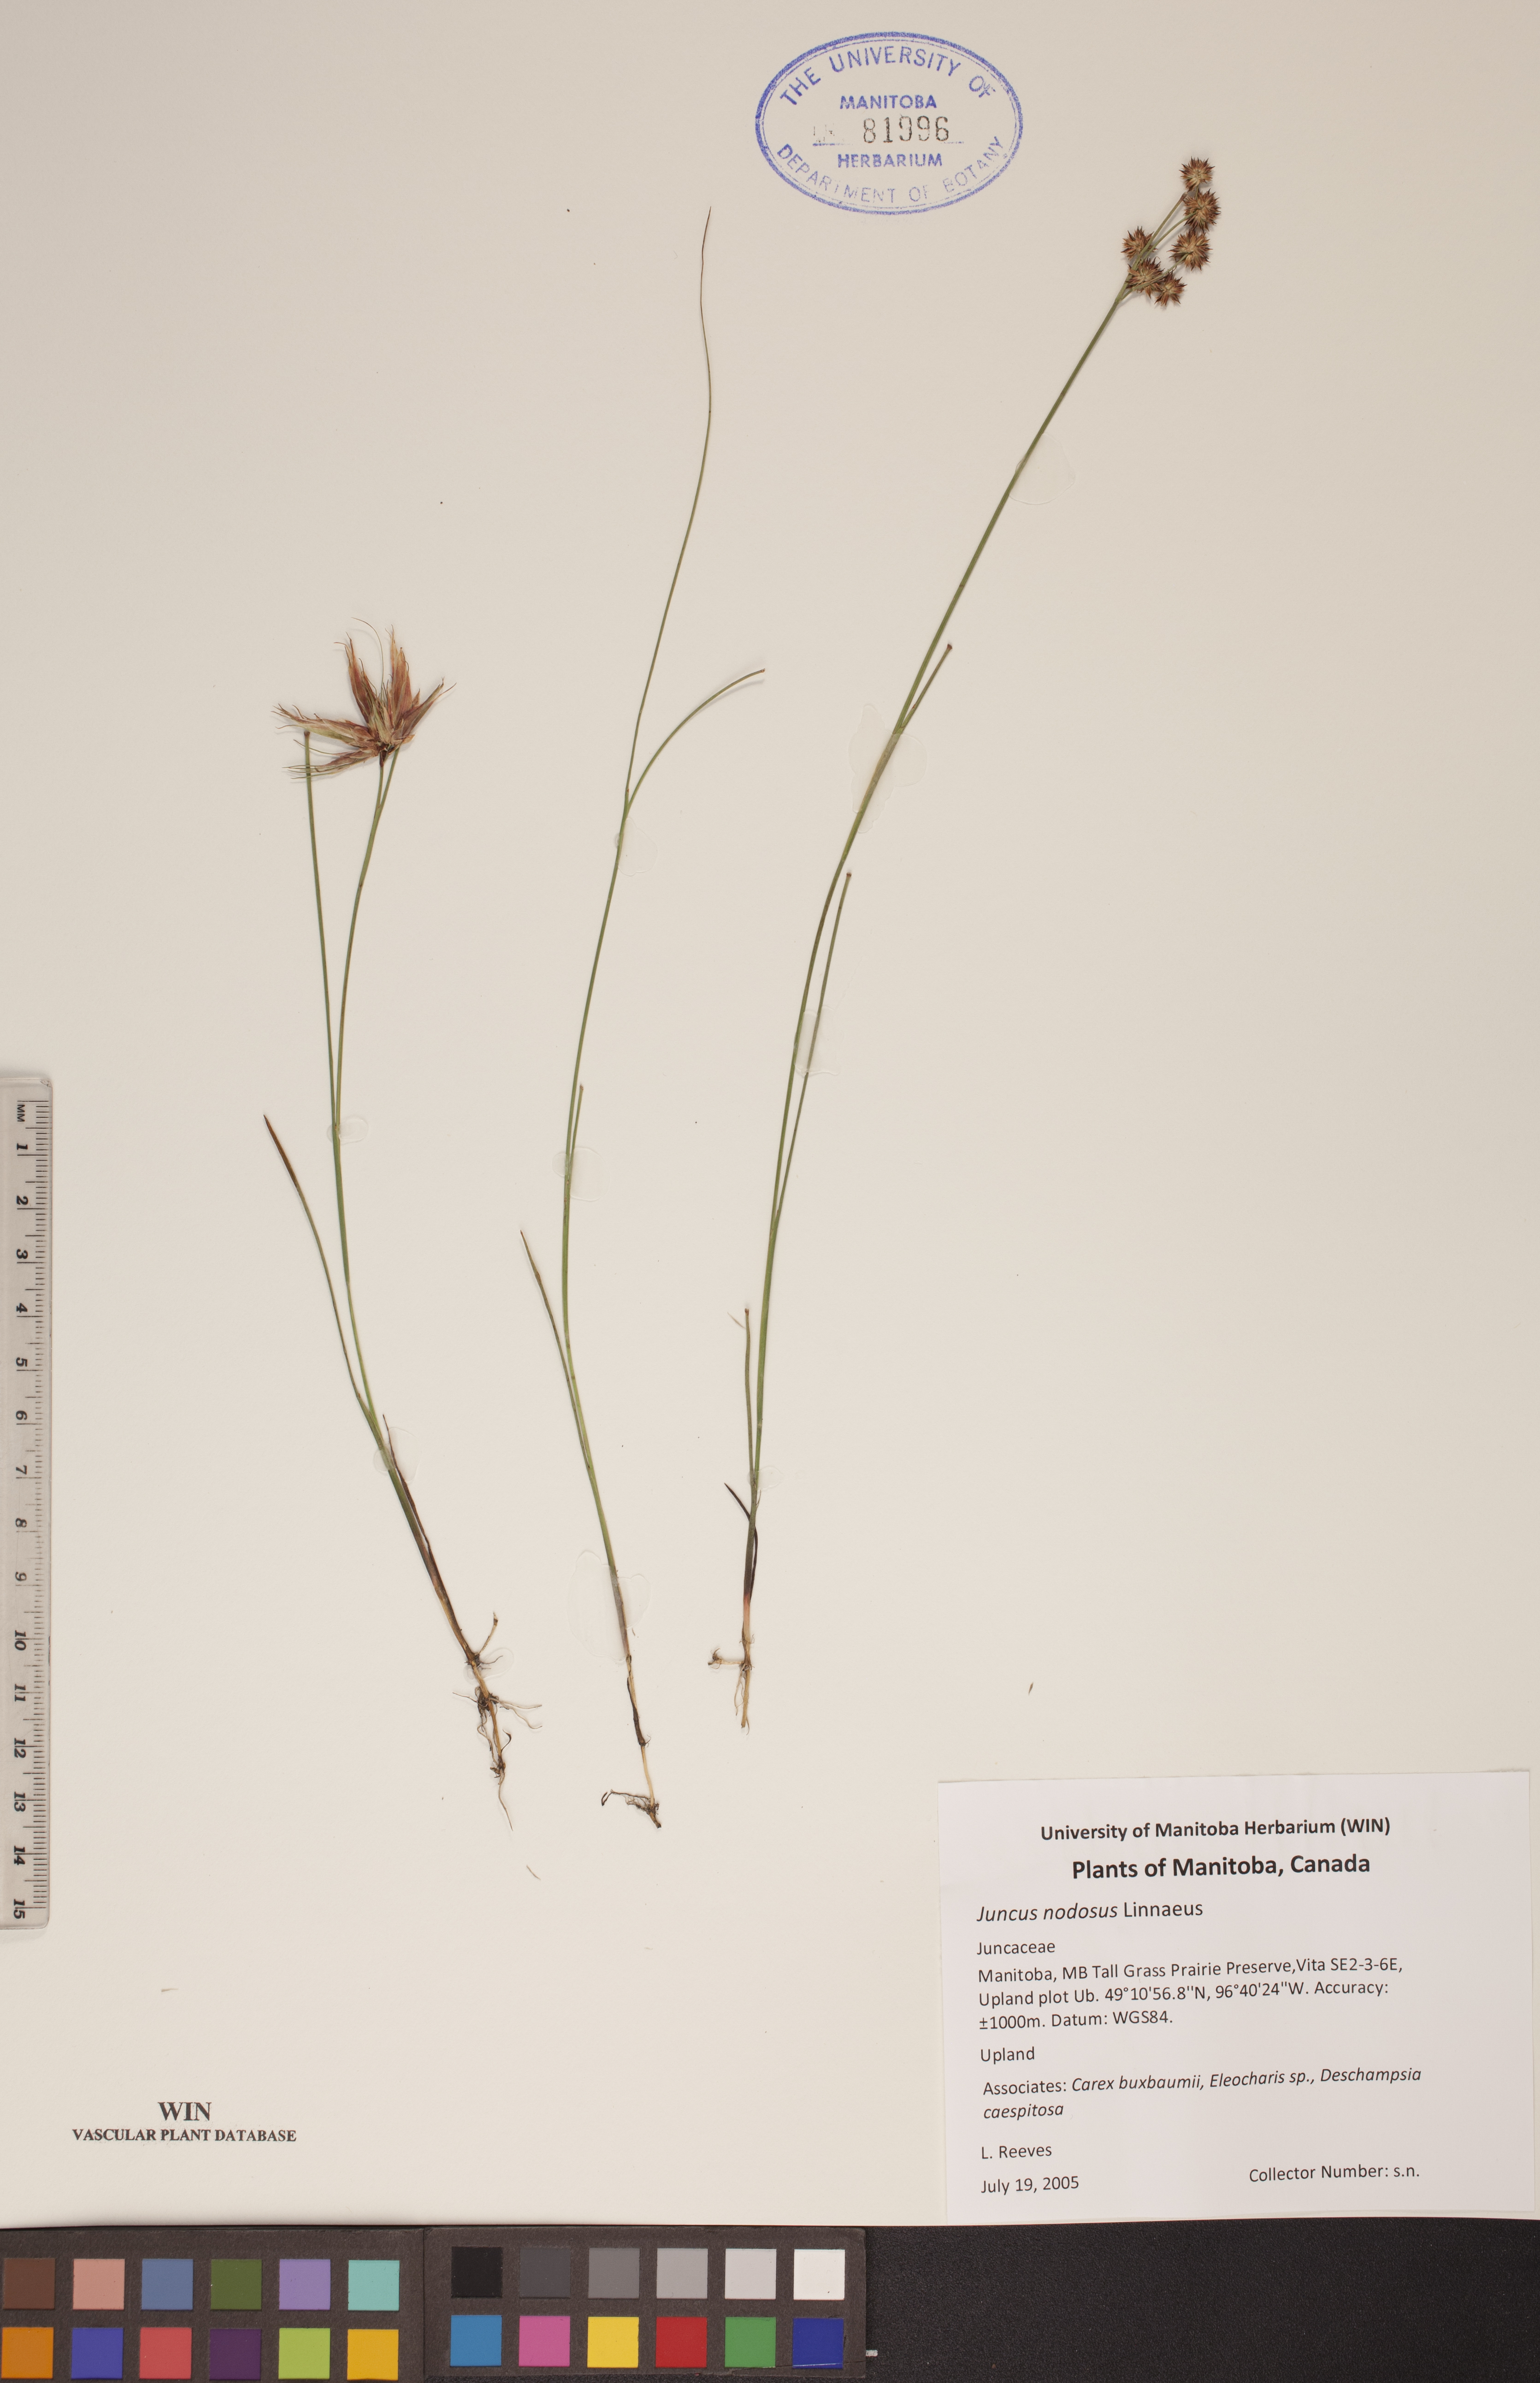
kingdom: Plantae
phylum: Tracheophyta
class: Liliopsida
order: Poales
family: Juncaceae
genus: Juncus
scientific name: Juncus nodosus
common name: Knotted rush
